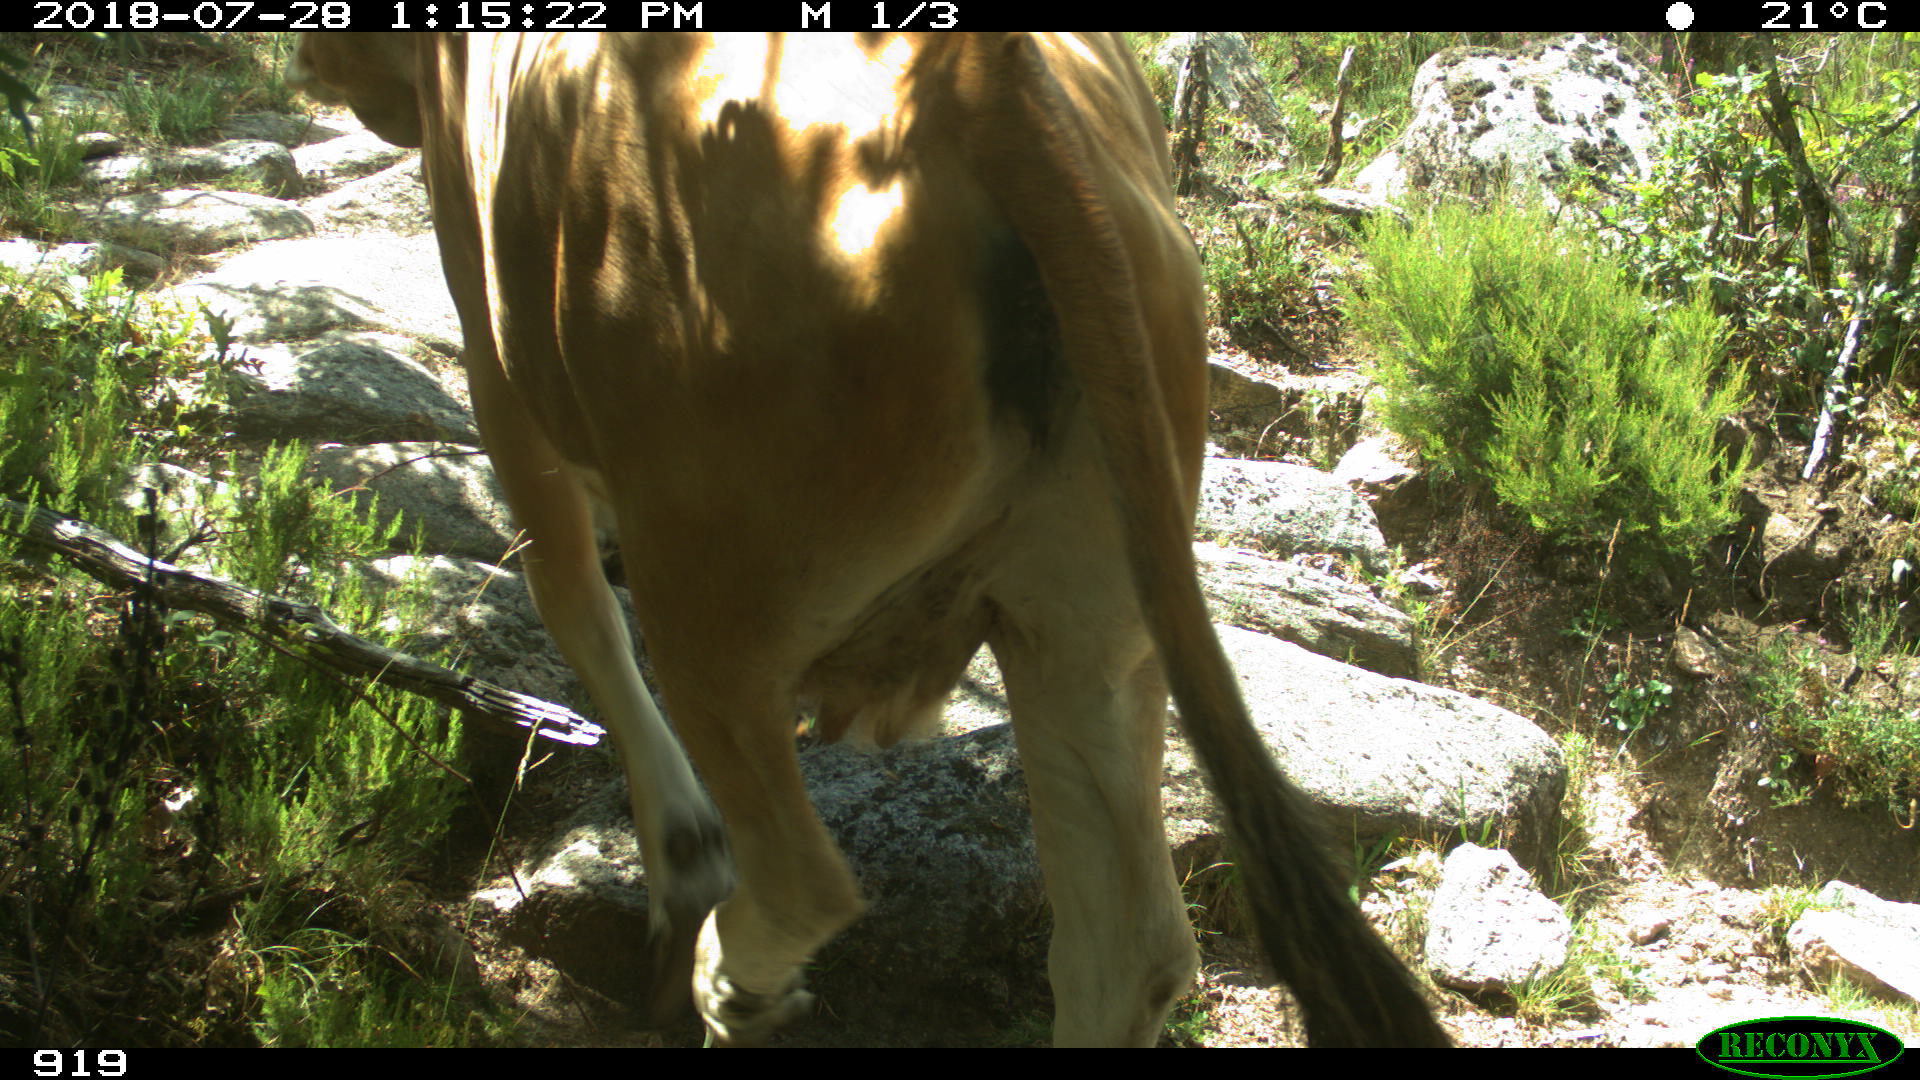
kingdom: Animalia
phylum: Chordata
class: Mammalia
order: Artiodactyla
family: Bovidae
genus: Bos
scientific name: Bos taurus
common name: Domesticated cattle
